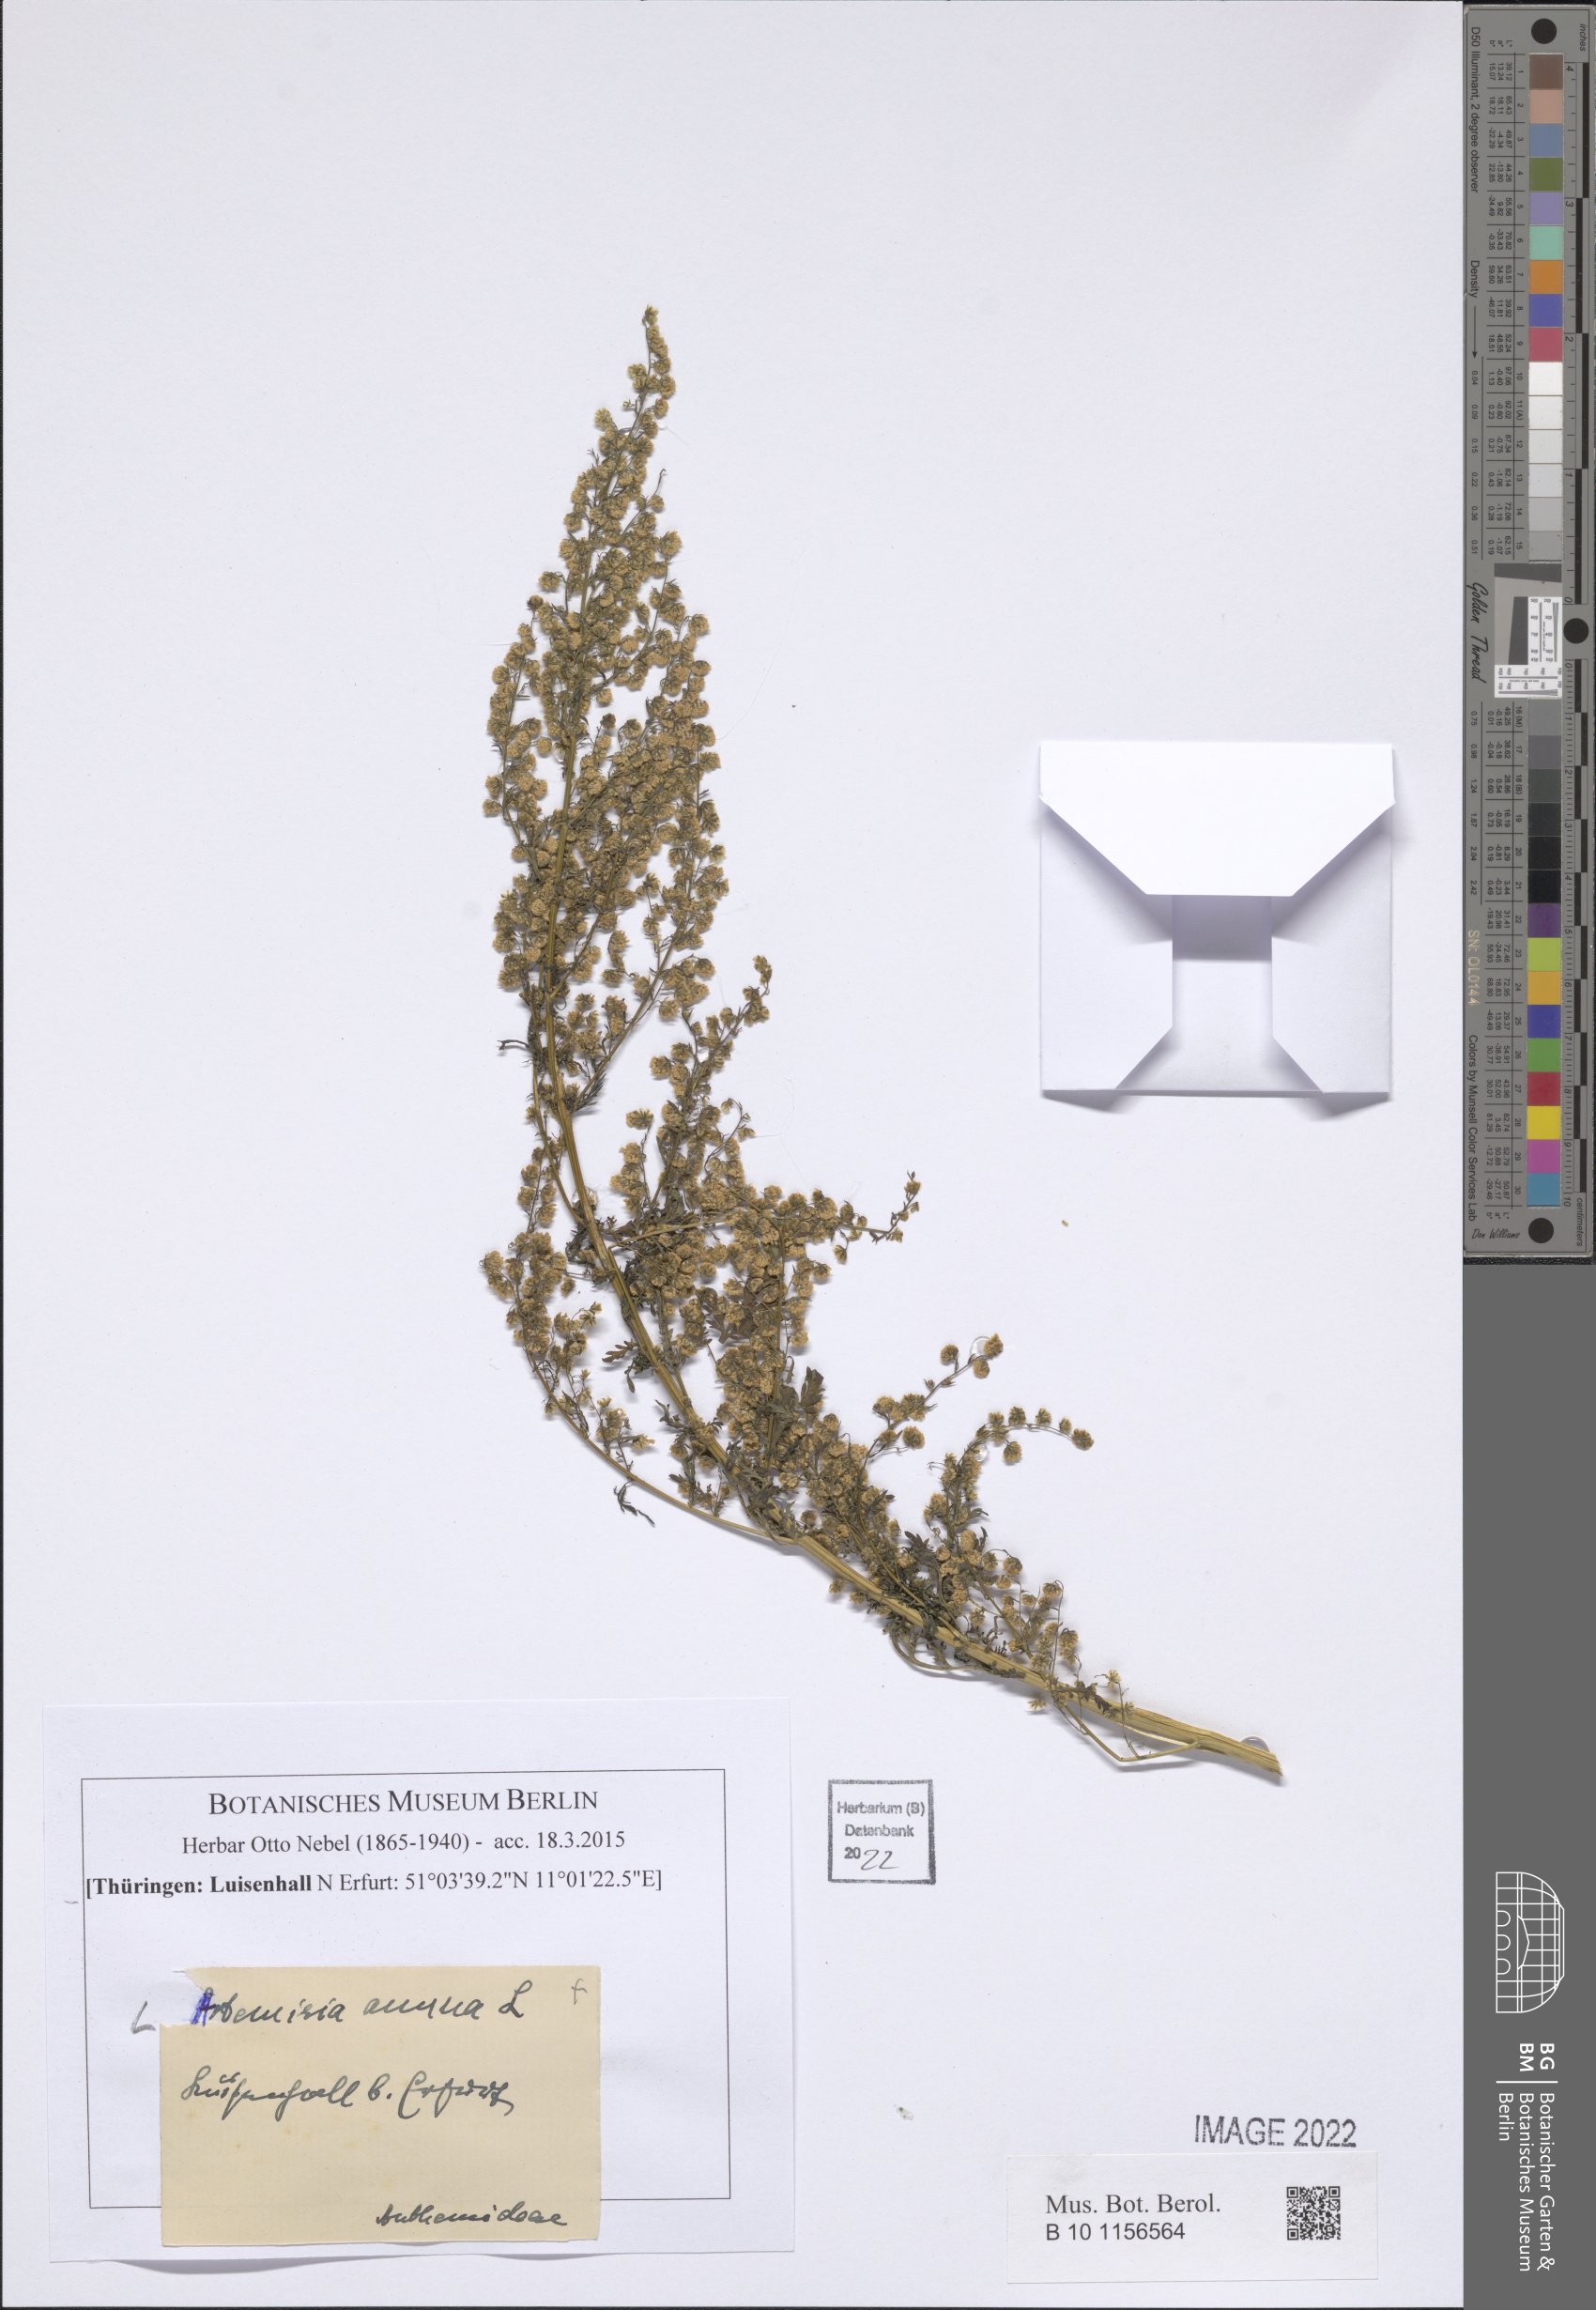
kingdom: Plantae
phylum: Tracheophyta
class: Magnoliopsida
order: Asterales
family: Asteraceae
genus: Artemisia
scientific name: Artemisia annua
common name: Sweet sagewort
